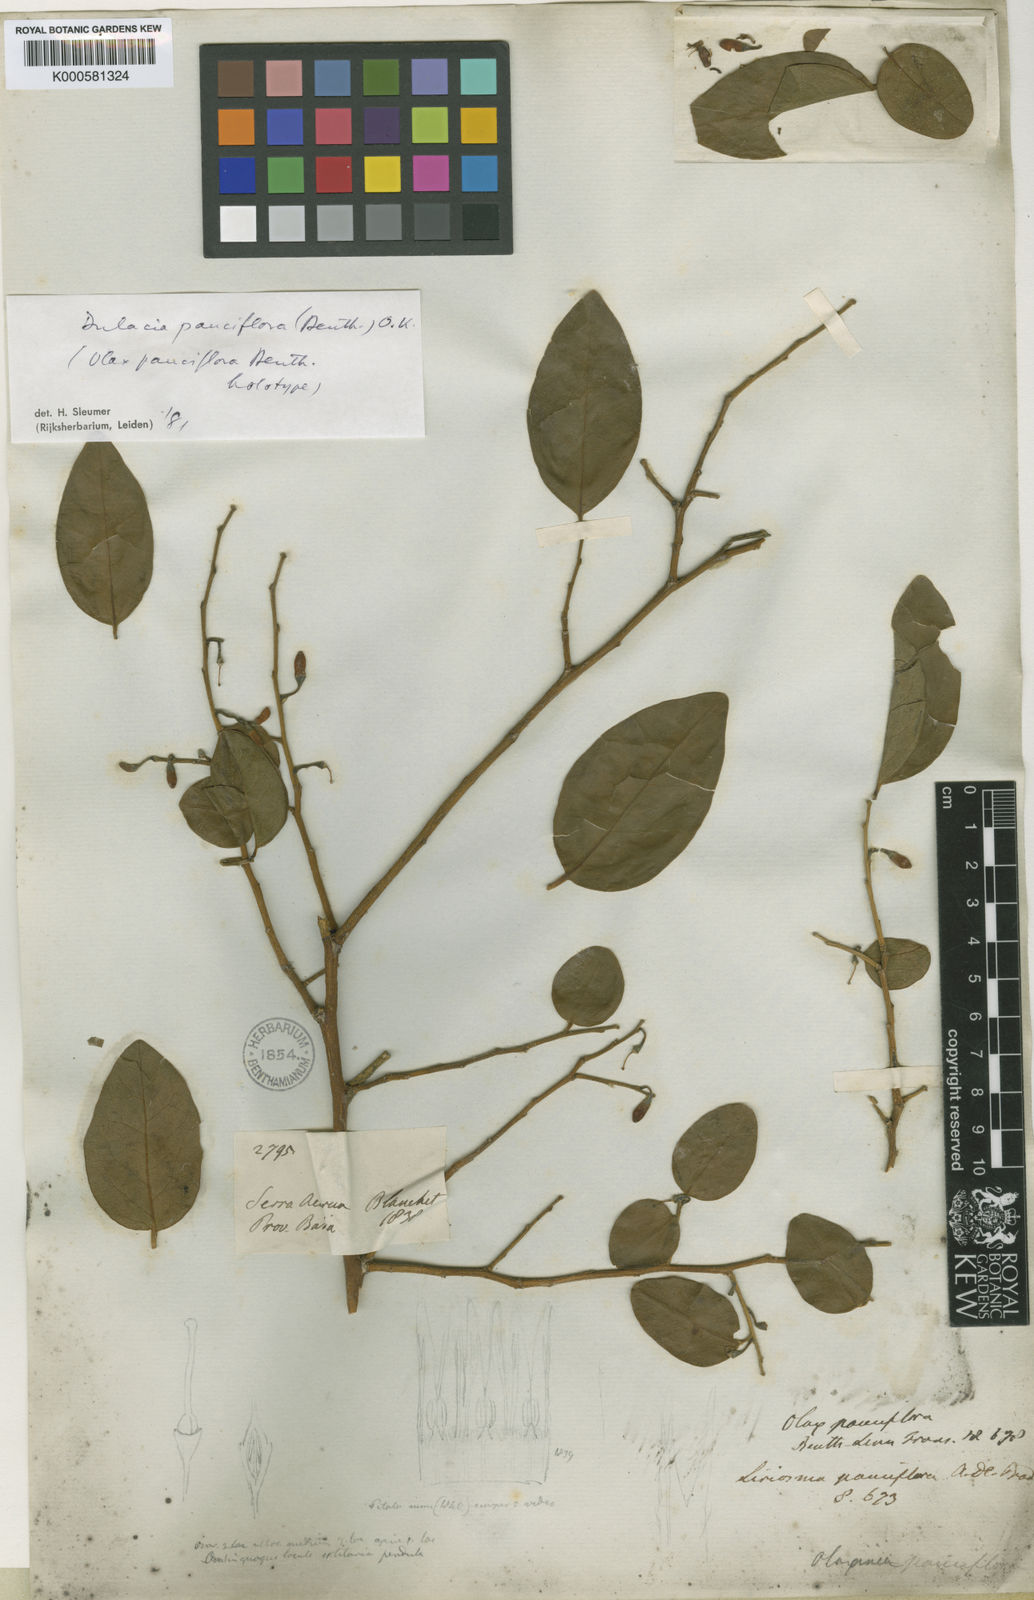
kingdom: Plantae
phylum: Tracheophyta
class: Magnoliopsida
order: Santalales
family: Olacaceae
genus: Dulacia
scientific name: Dulacia pauciflora
